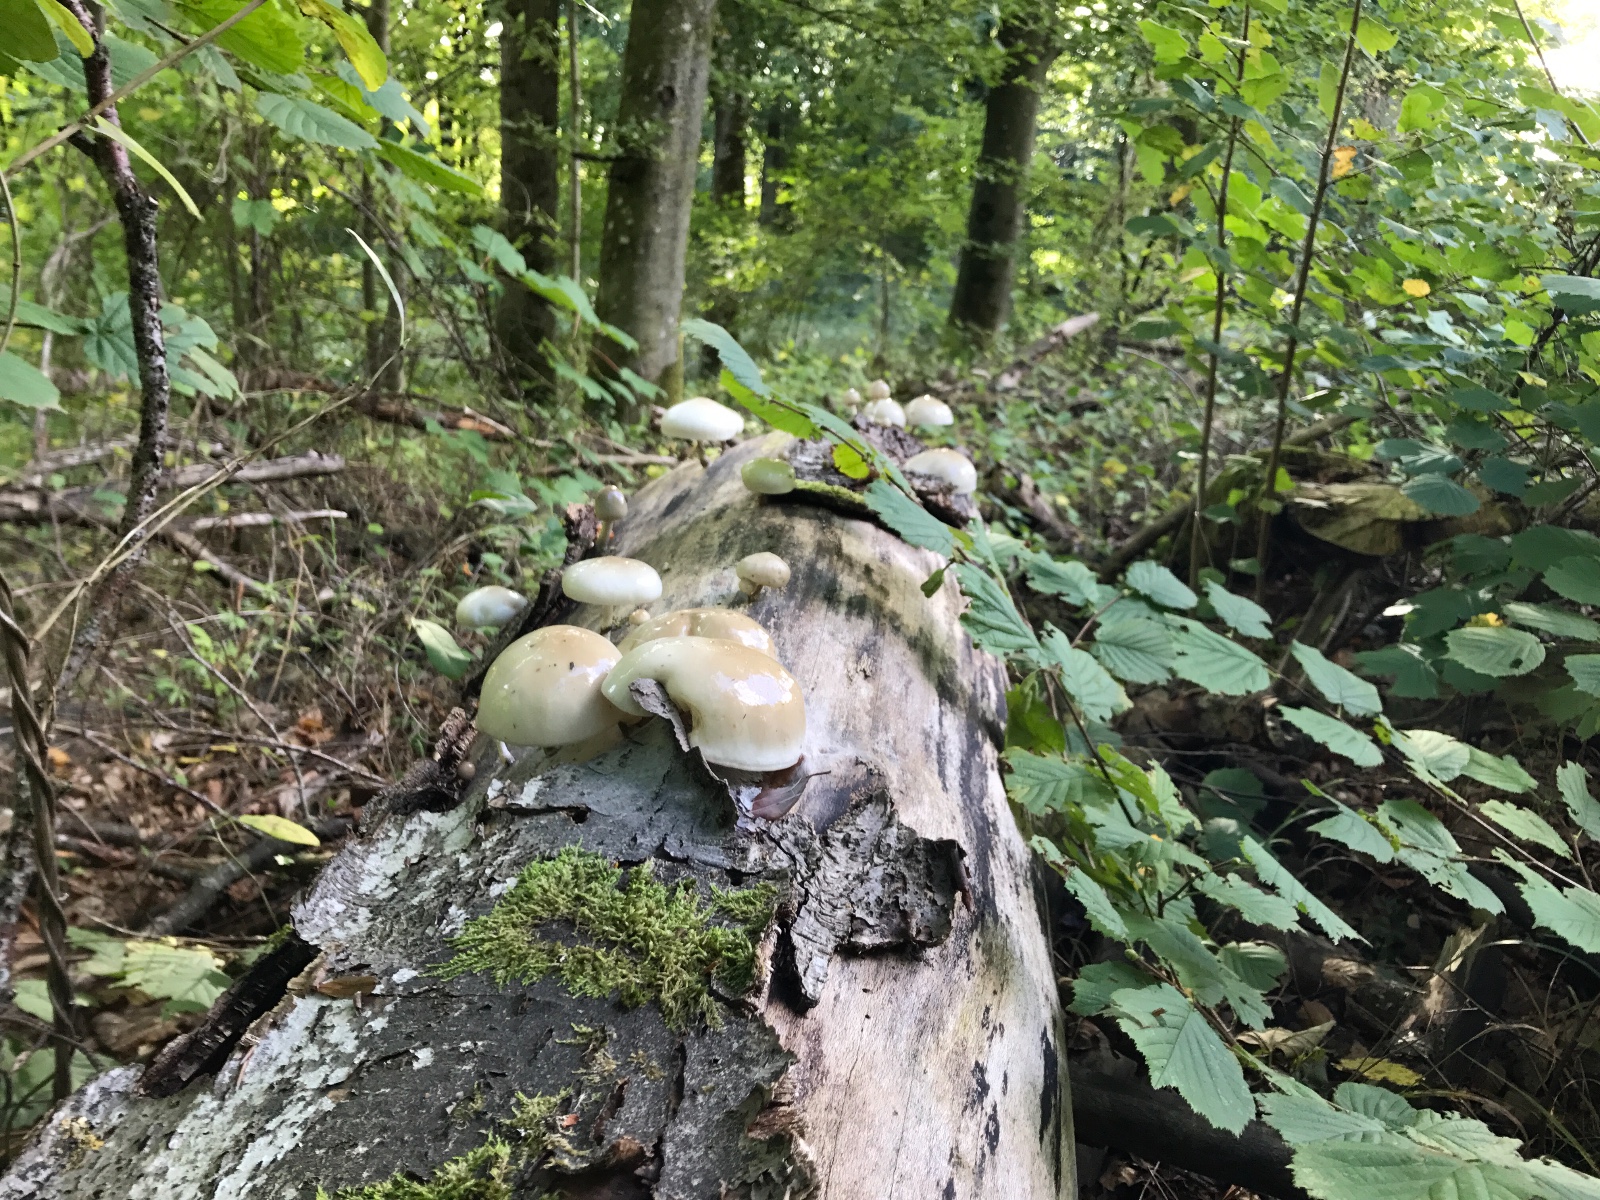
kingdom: Fungi
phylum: Basidiomycota
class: Agaricomycetes
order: Agaricales
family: Physalacriaceae
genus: Mucidula
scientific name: Mucidula mucida
